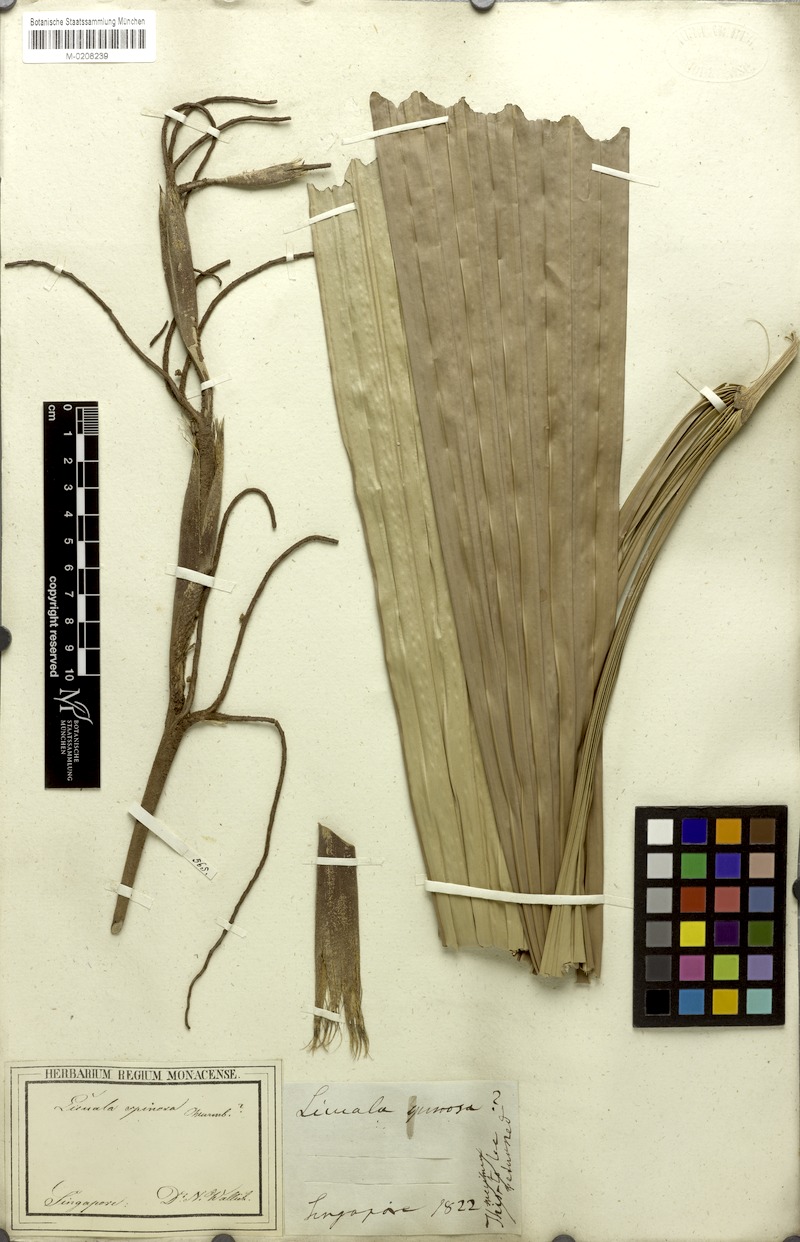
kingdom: Plantae
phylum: Tracheophyta
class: Liliopsida
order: Arecales
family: Arecaceae
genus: Licuala
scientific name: Licuala spinosa
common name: Mangrove fan palm
